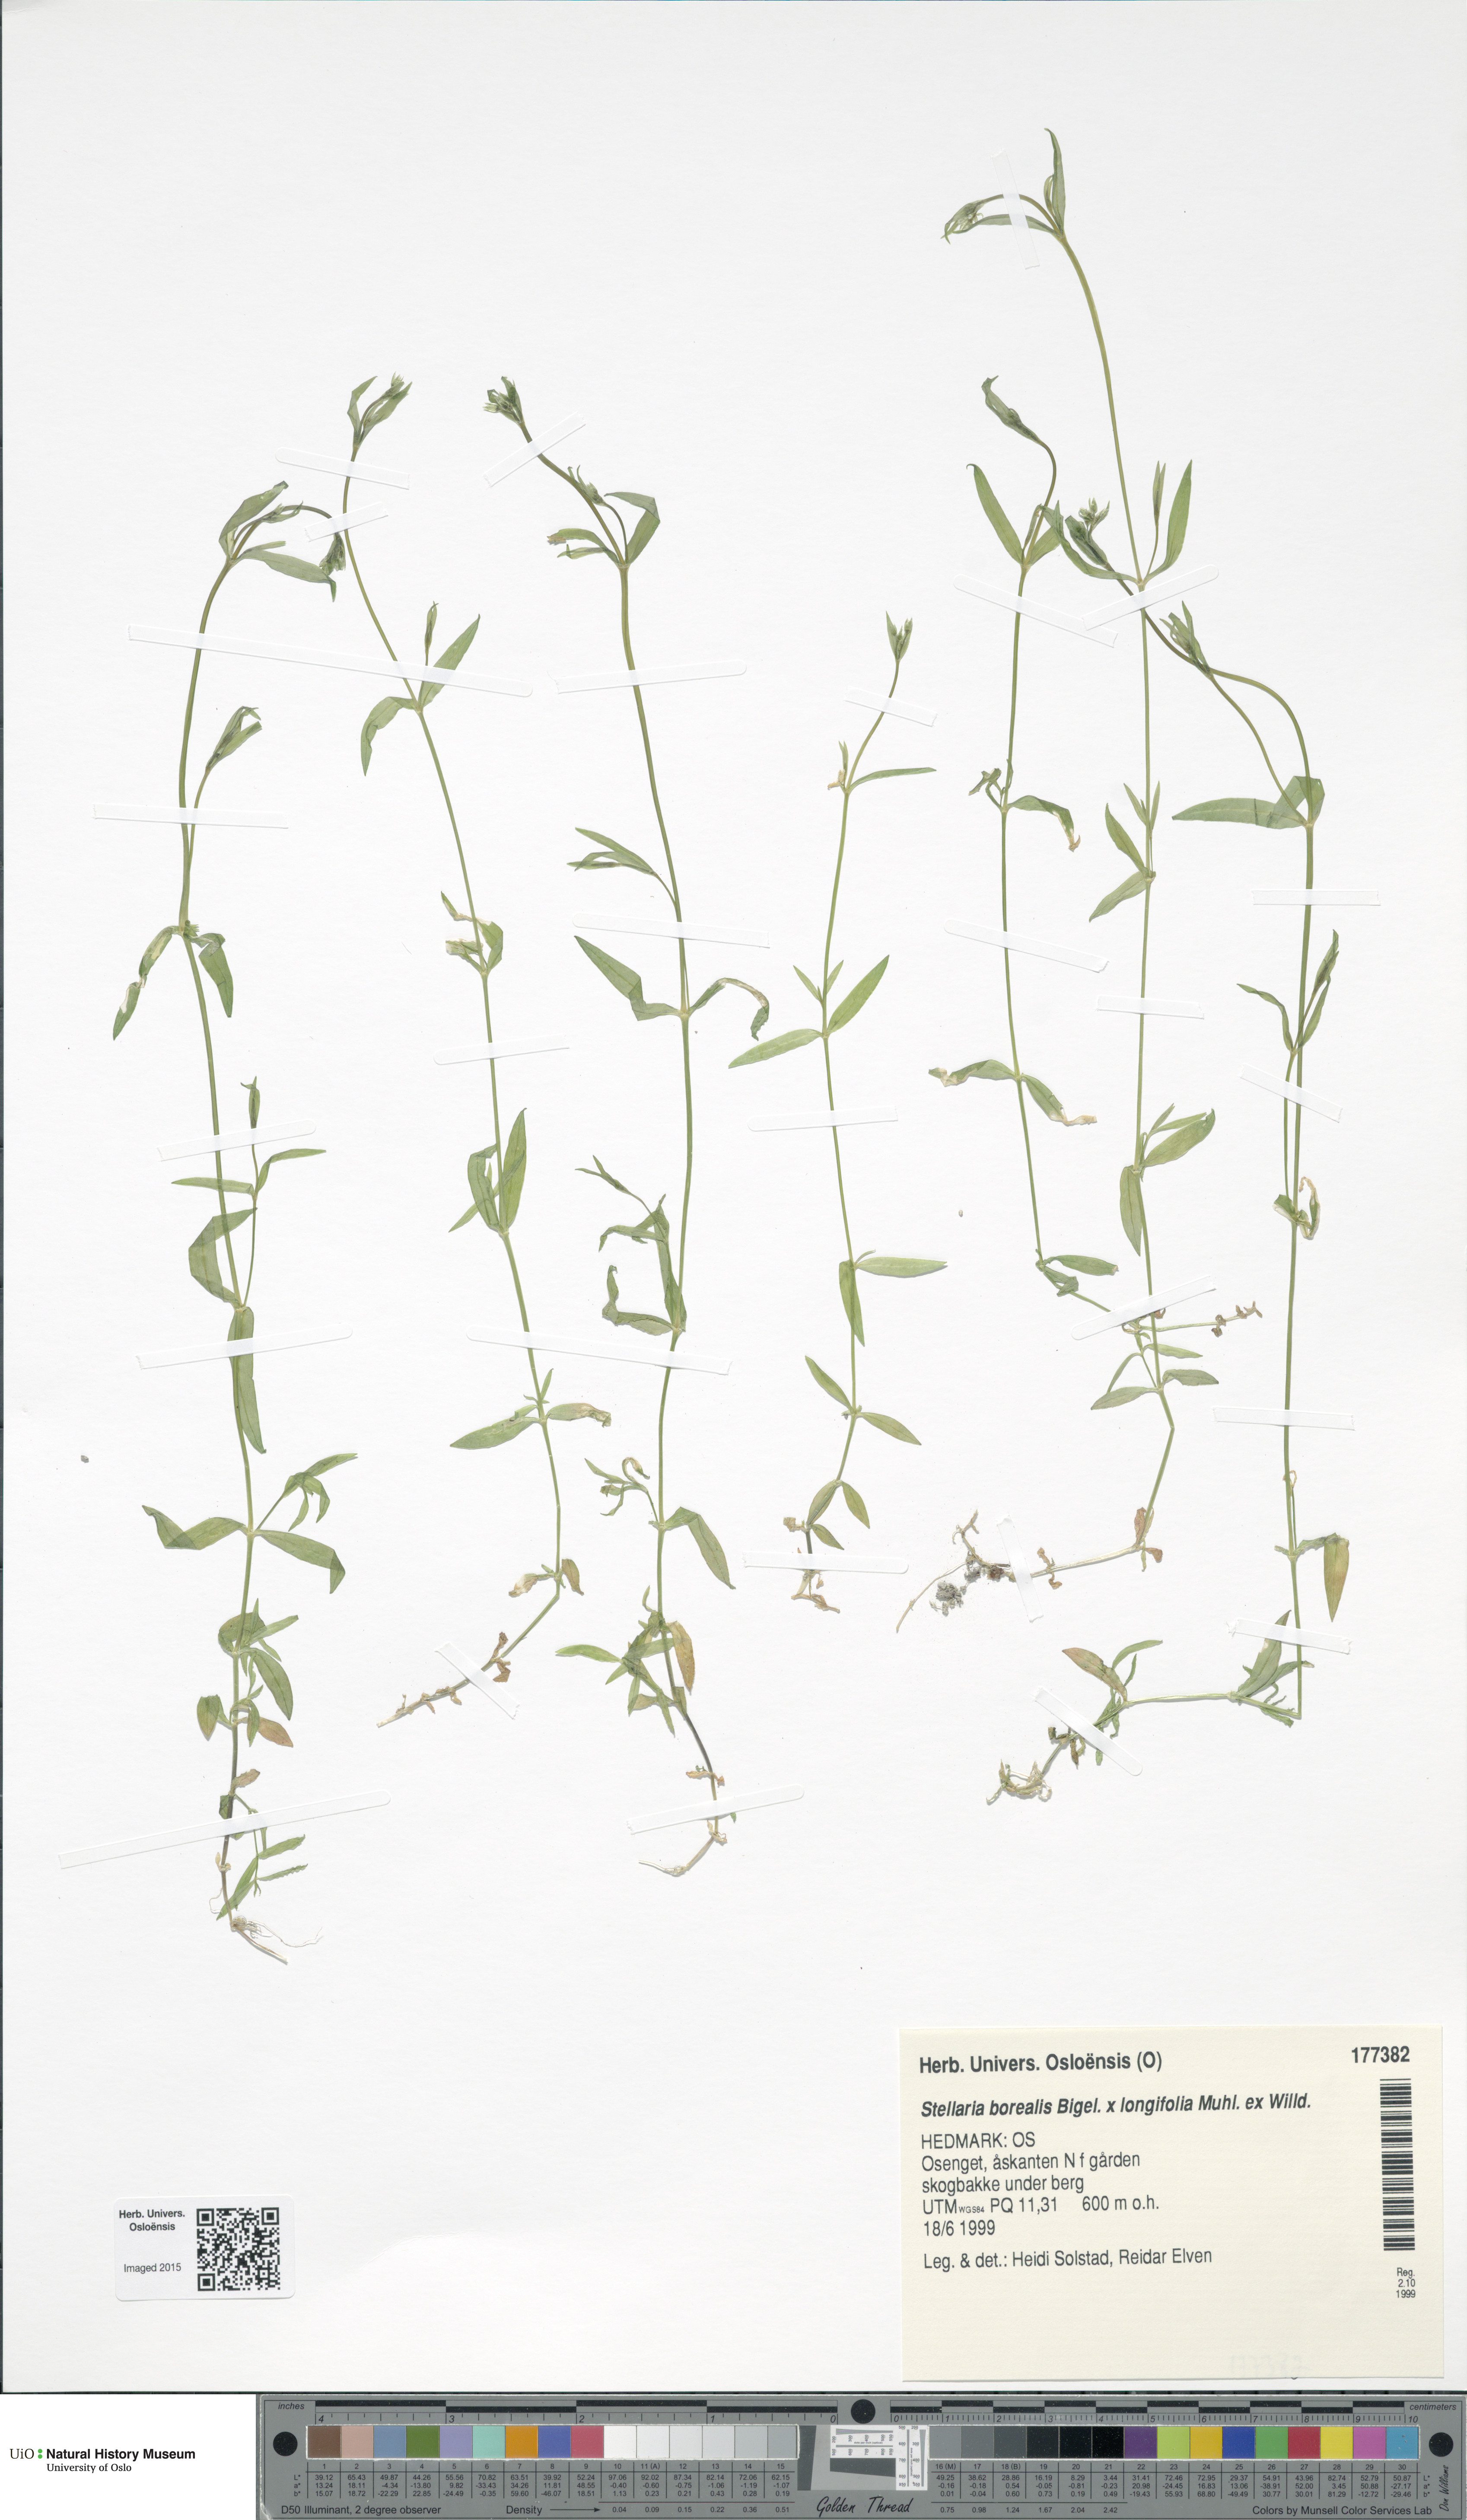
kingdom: Plantae
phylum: Tracheophyta
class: Magnoliopsida
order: Caryophyllales
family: Caryophyllaceae
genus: Stellaria
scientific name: Stellaria
